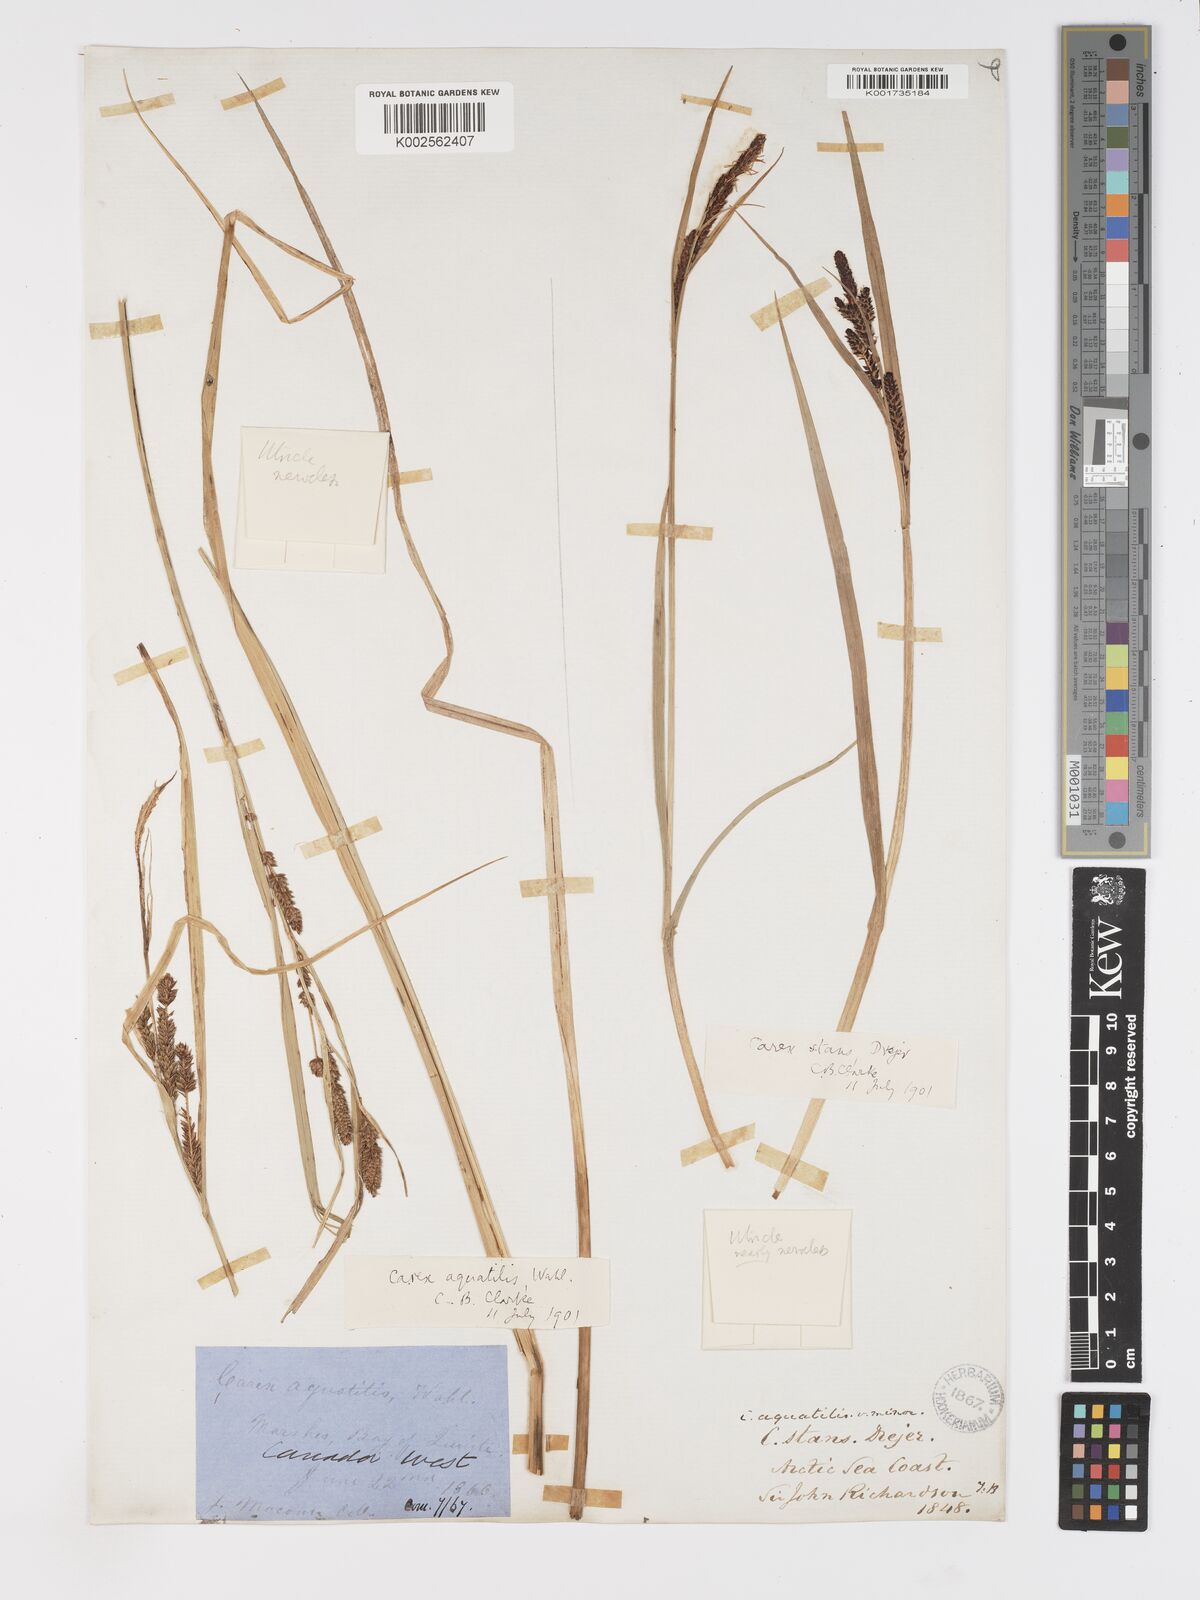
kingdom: Plantae
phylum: Tracheophyta
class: Liliopsida
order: Poales
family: Cyperaceae
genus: Carex
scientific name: Carex aquatilis
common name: Water sedge
